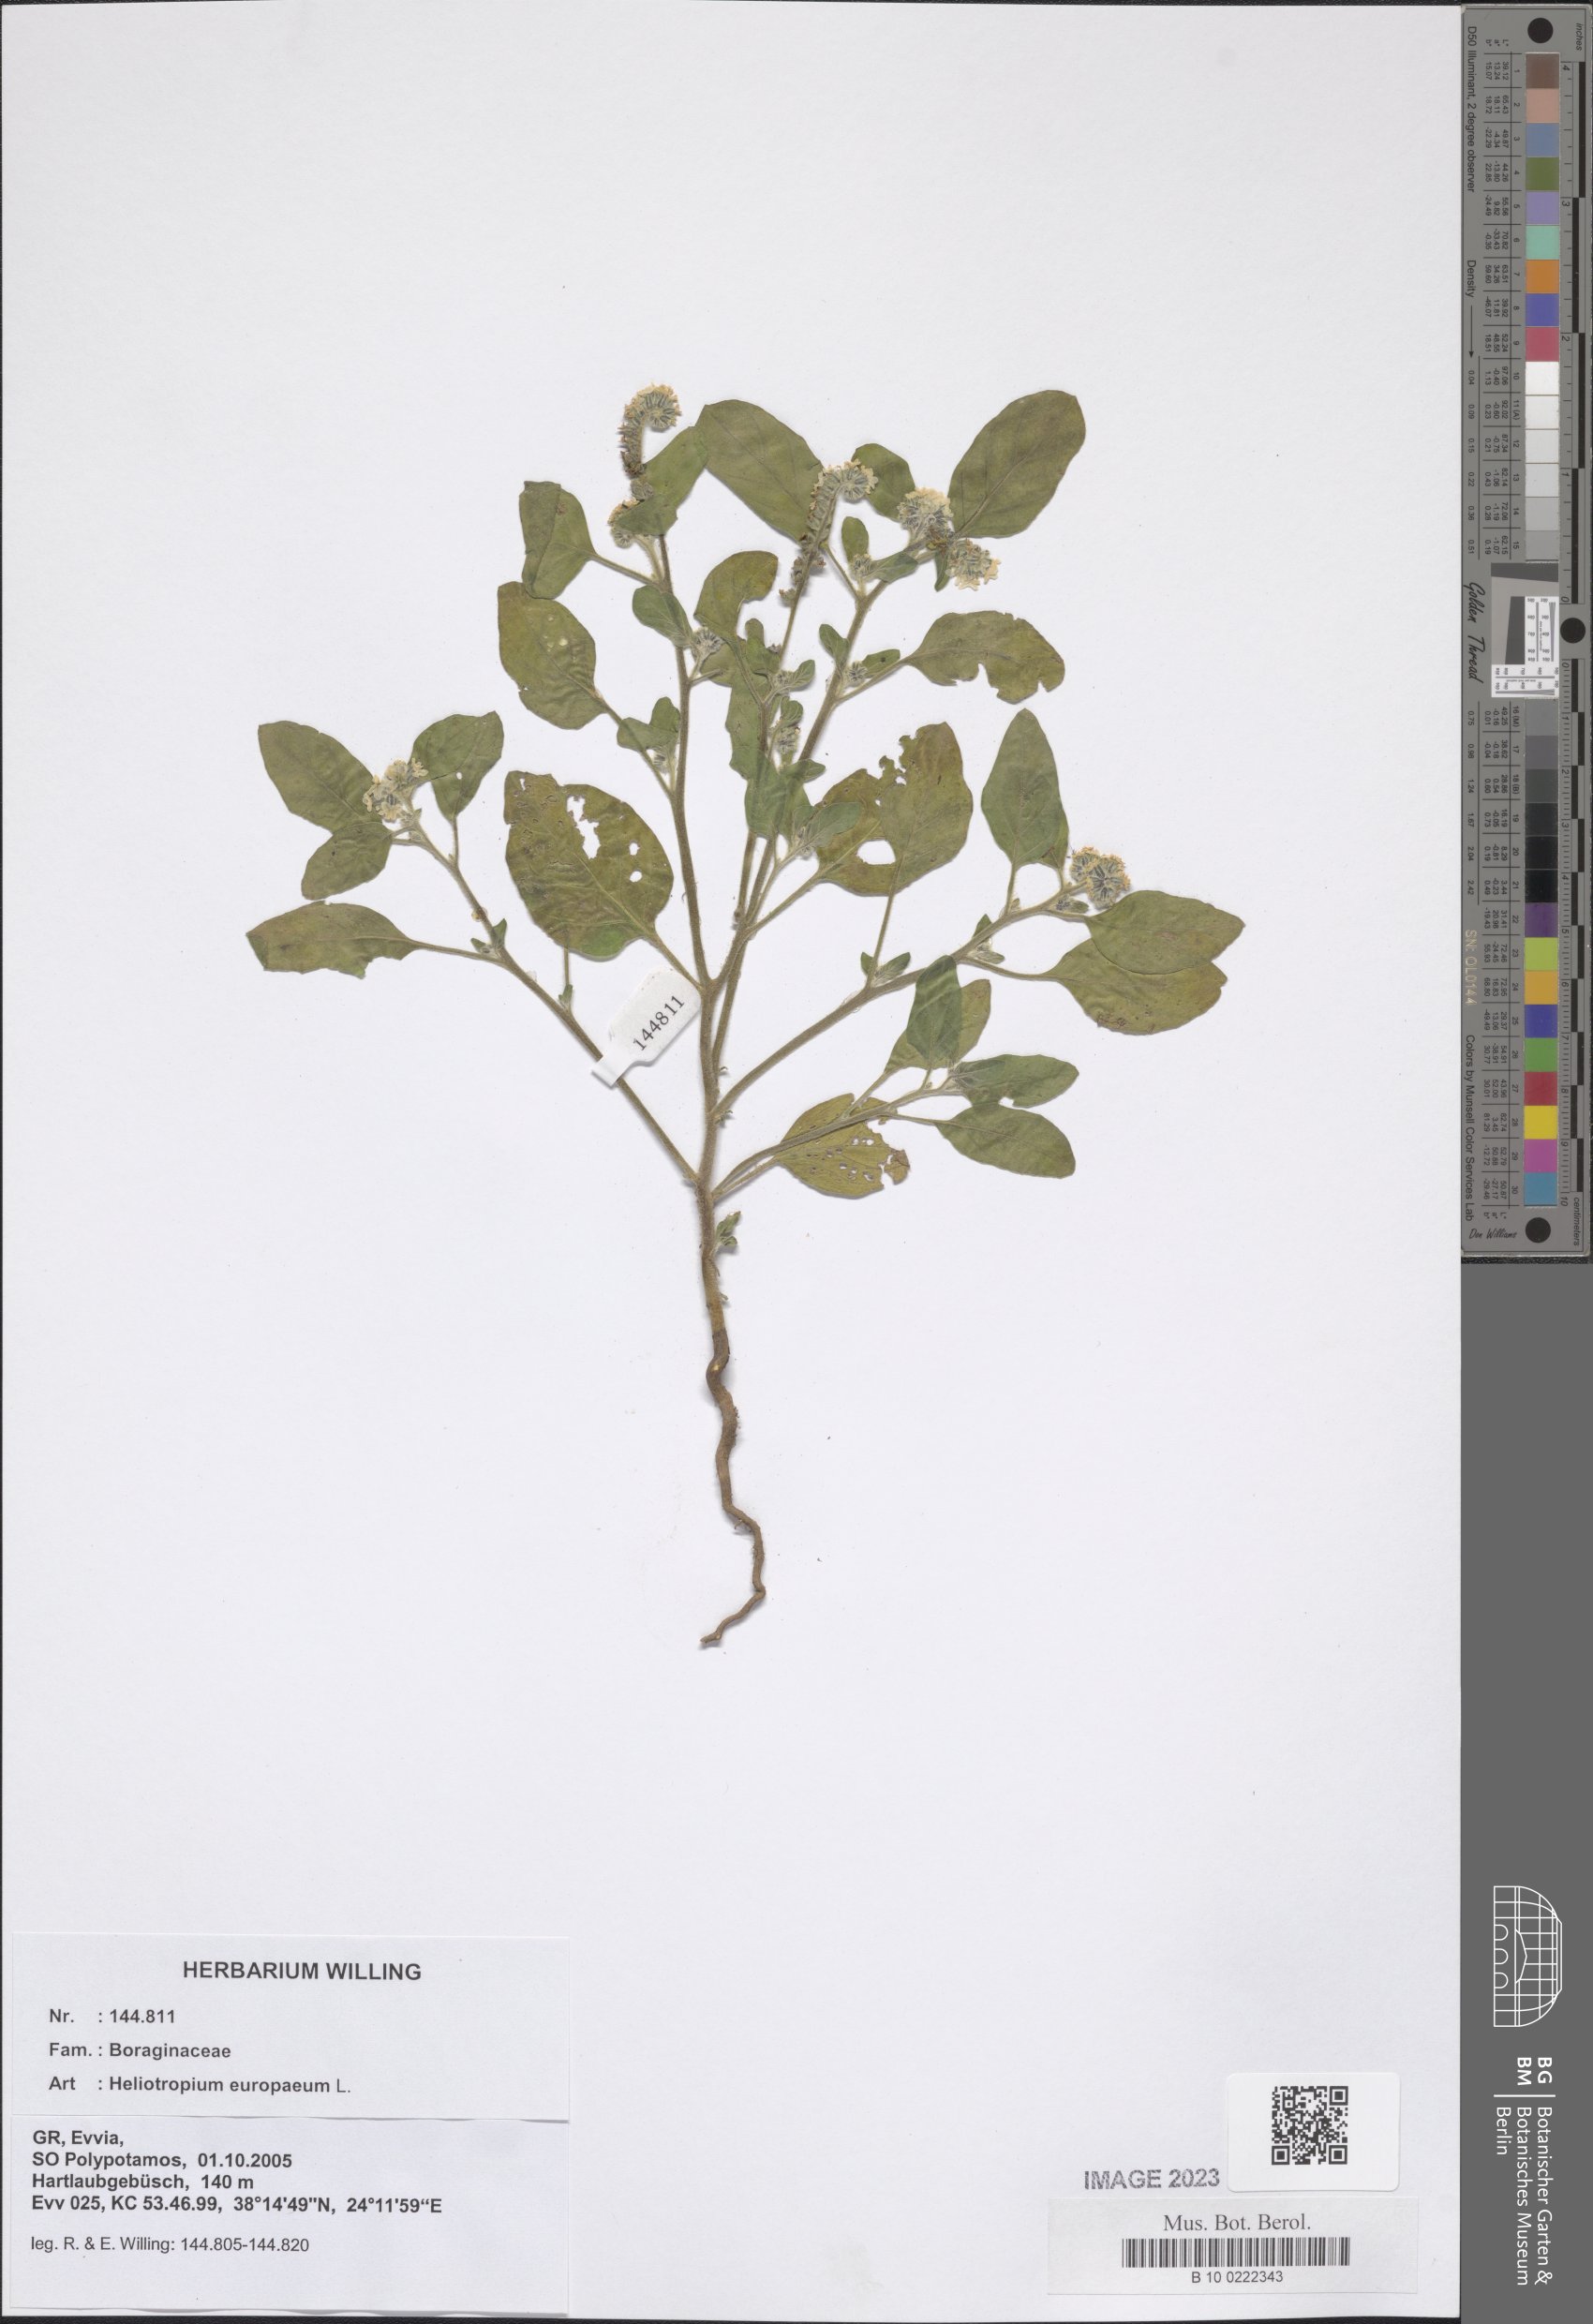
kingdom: Plantae
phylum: Tracheophyta
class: Magnoliopsida
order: Boraginales
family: Heliotropiaceae
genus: Heliotropium
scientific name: Heliotropium europaeum
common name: European heliotrope
